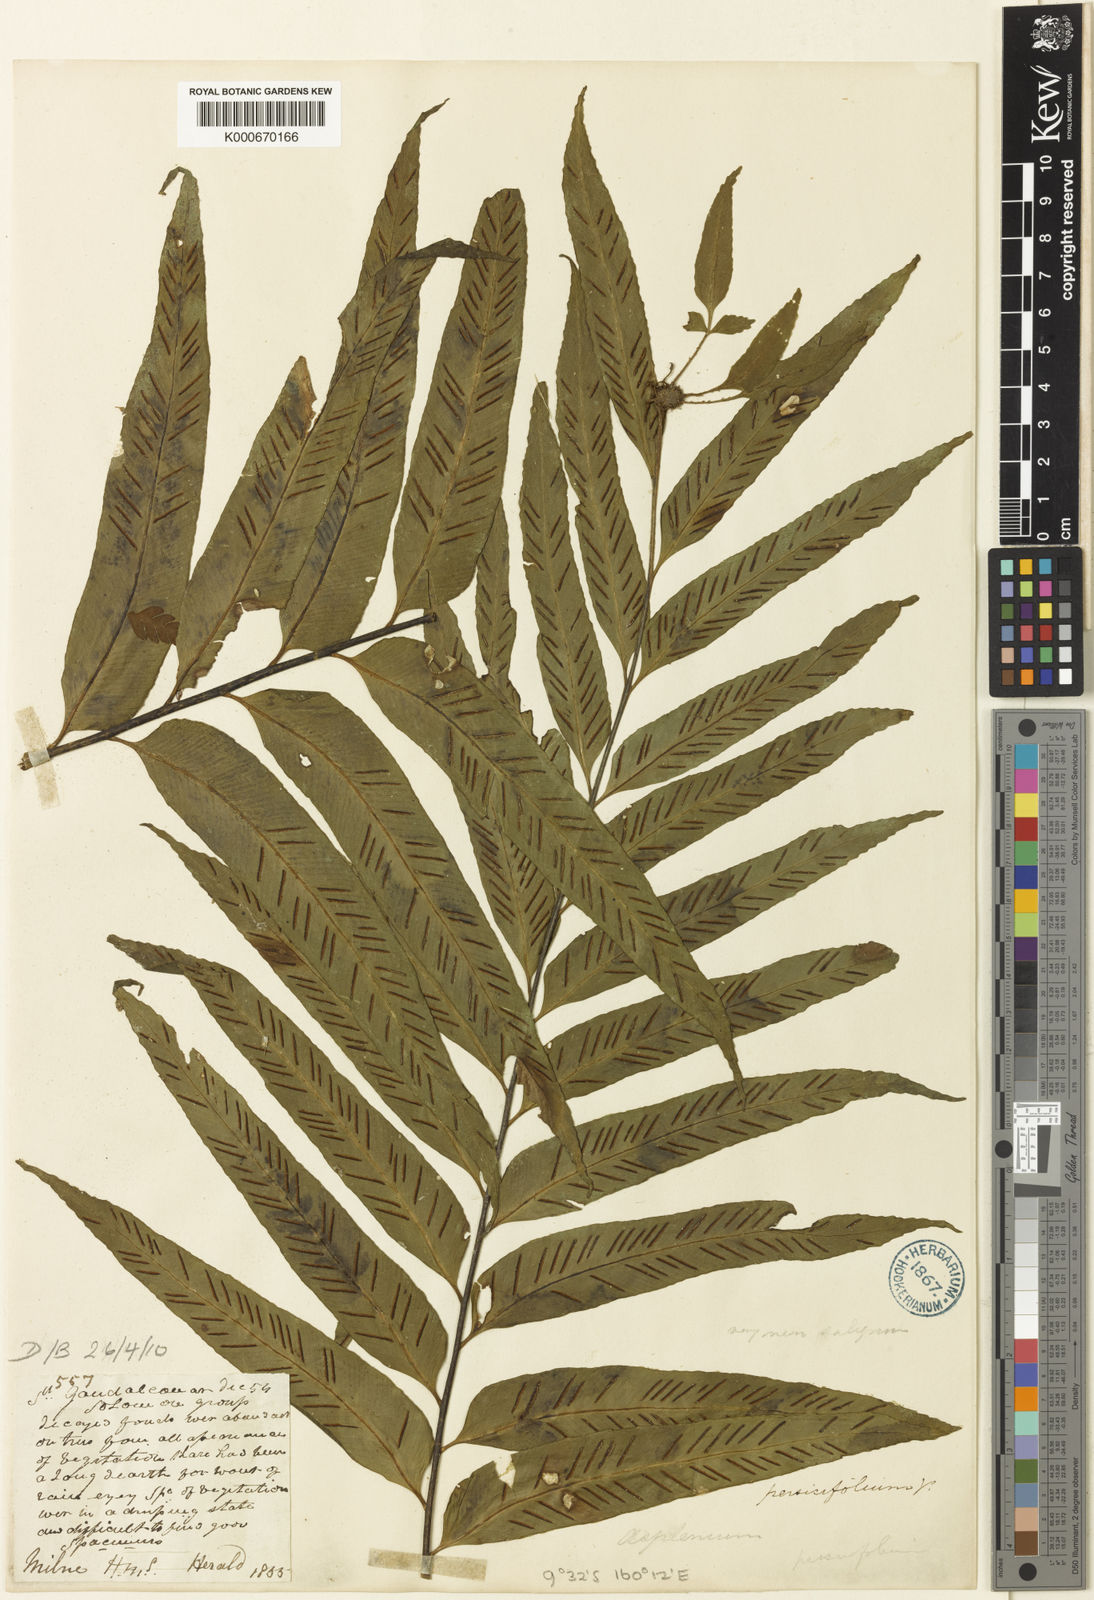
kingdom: Plantae
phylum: Tracheophyta
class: Polypodiopsida
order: Polypodiales
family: Aspleniaceae
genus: Asplenium
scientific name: Asplenium atrovirens
